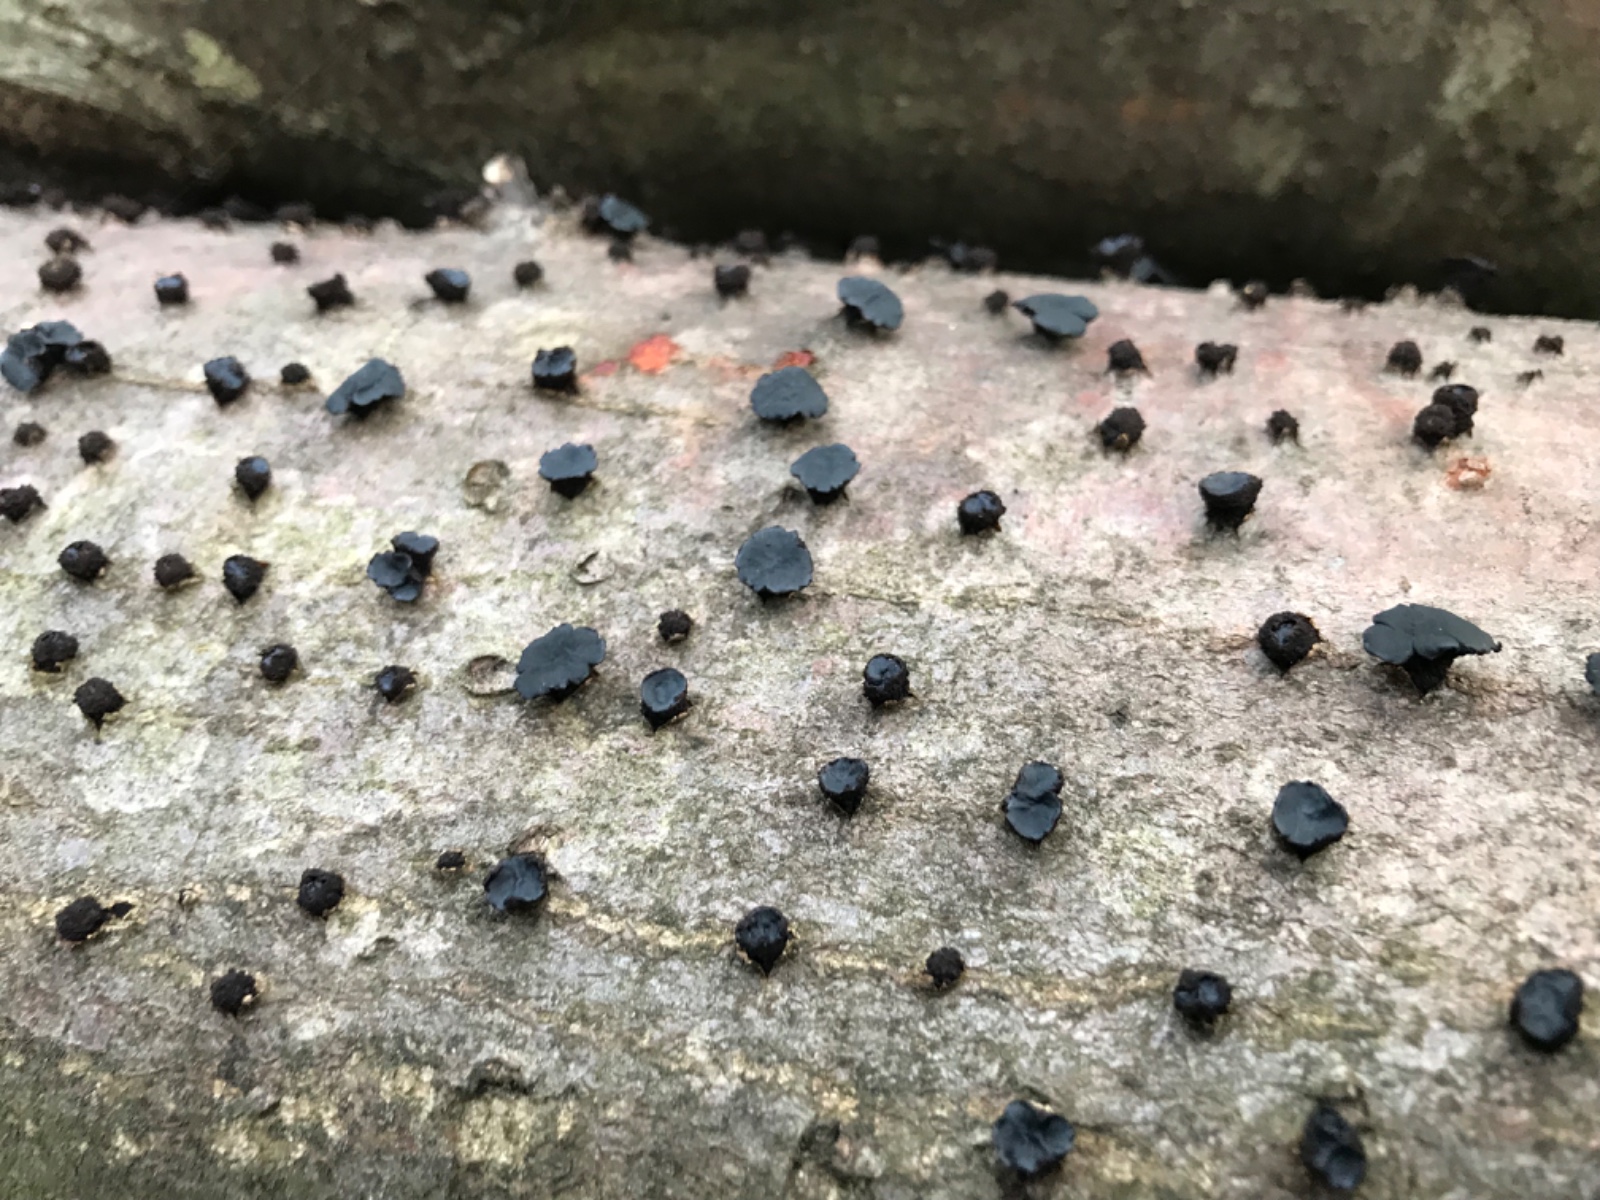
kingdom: Fungi
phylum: Ascomycota
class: Leotiomycetes
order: Phacidiales
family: Phacidiaceae
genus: Bulgaria
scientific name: Bulgaria inquinans
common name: afsmittende topsvamp
